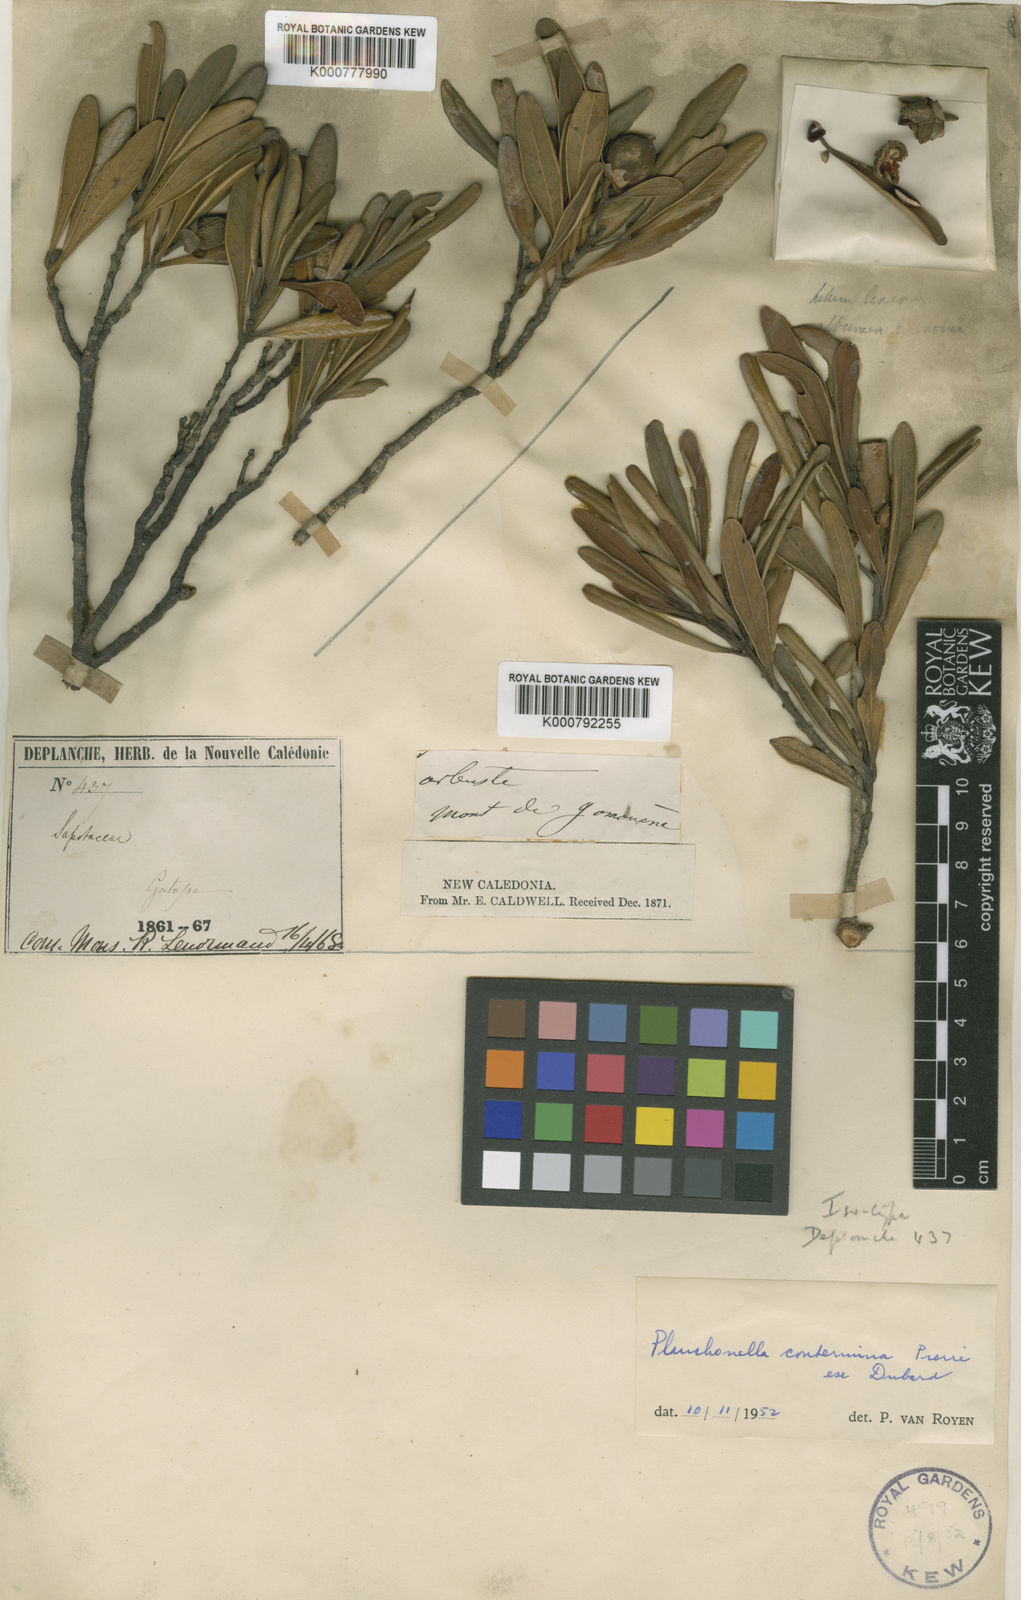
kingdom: Plantae
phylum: Tracheophyta
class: Magnoliopsida
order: Ericales
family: Sapotaceae
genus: Planchonella
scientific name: Planchonella contermina
